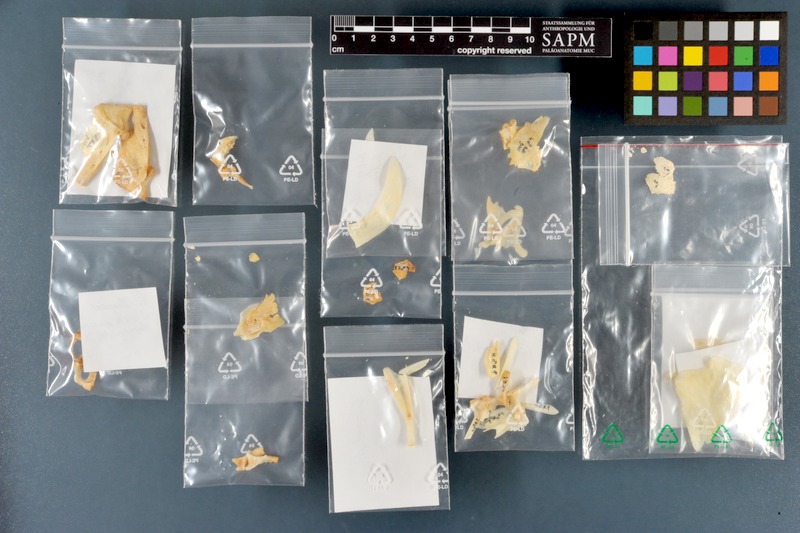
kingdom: Animalia
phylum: Chordata
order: Cypriniformes
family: Cyprinidae
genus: Rutilus
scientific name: Rutilus meidingeri
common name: Perlfisch
